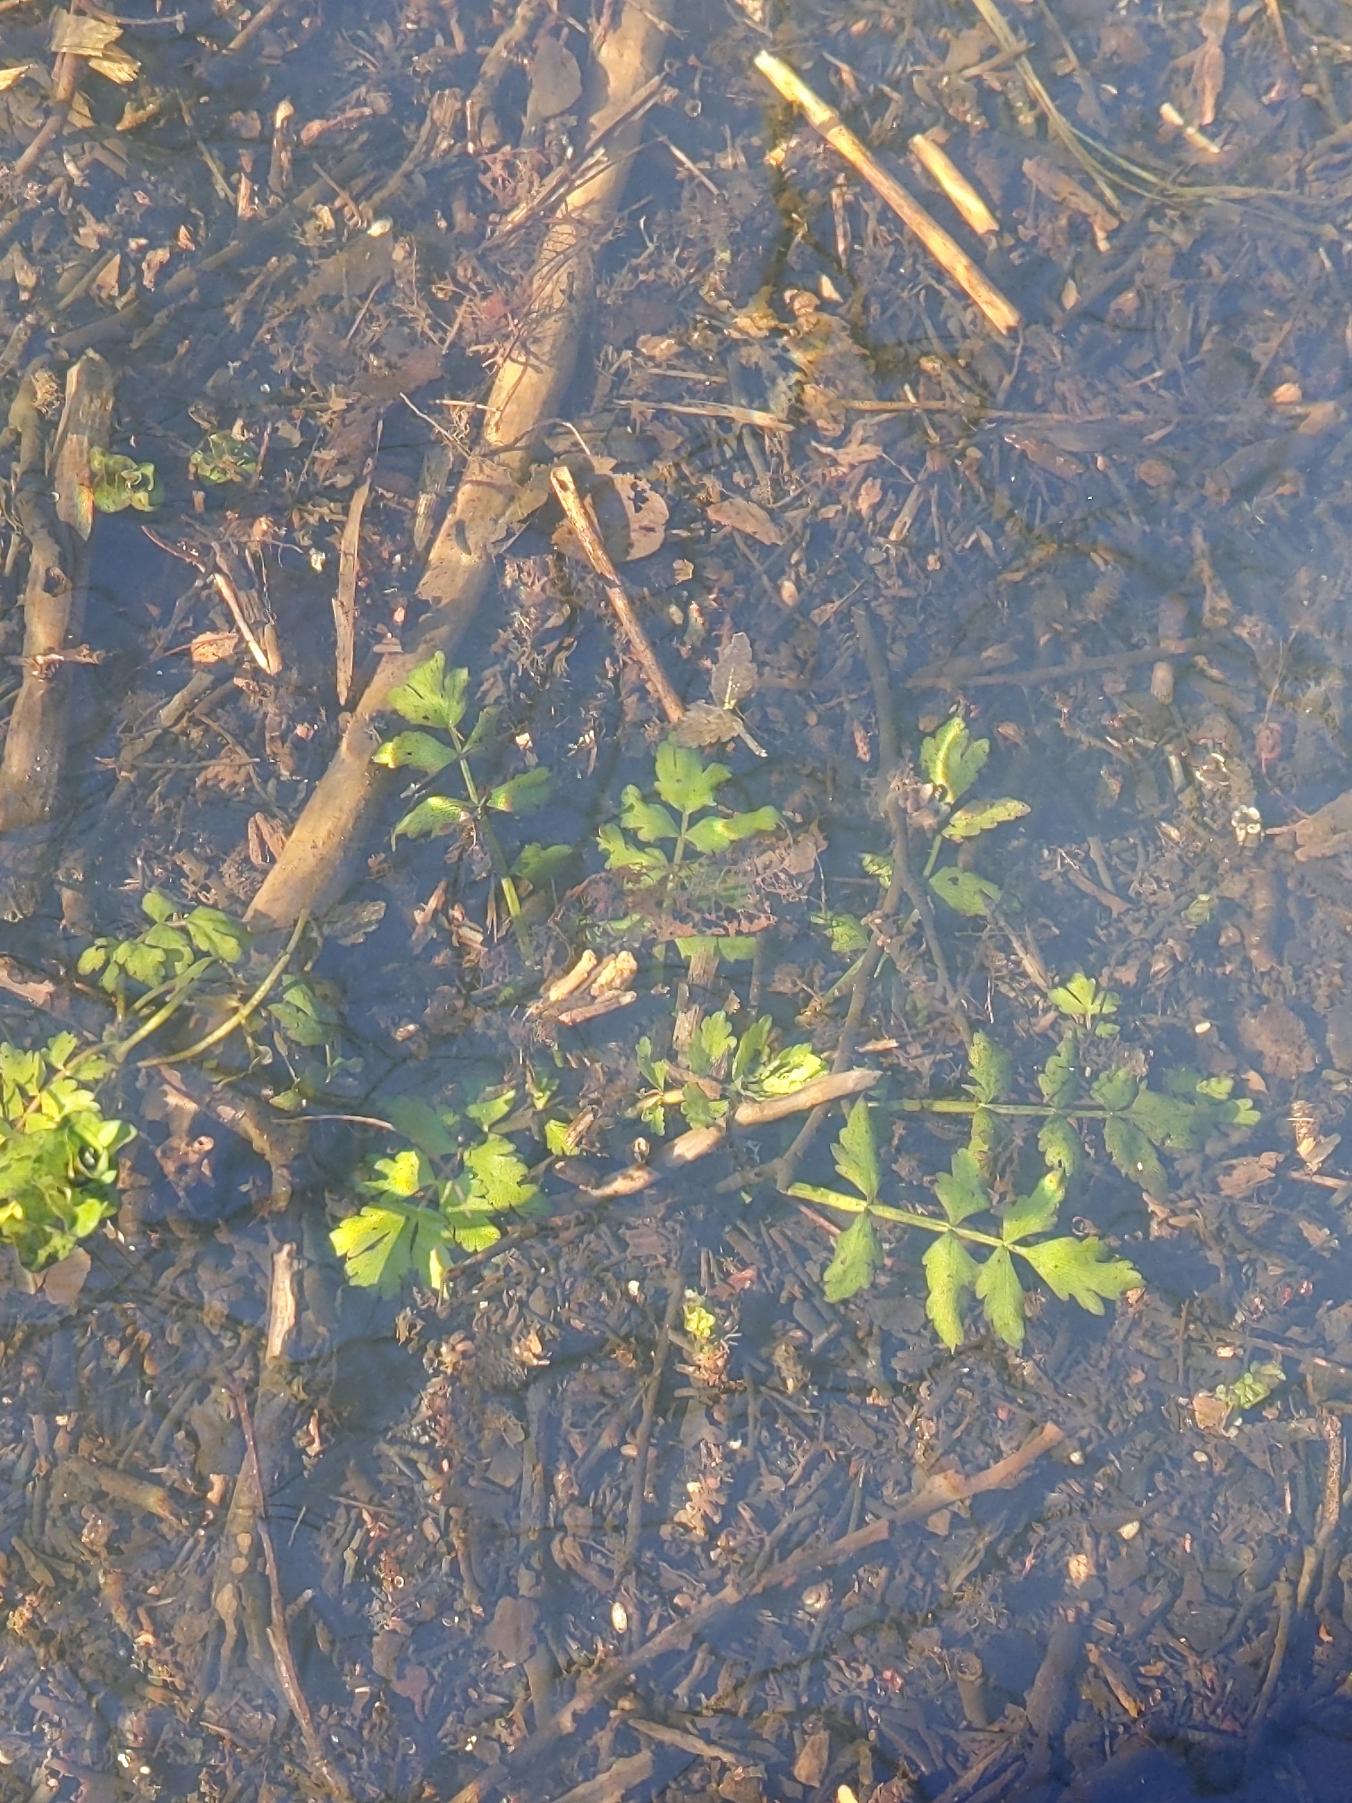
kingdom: Plantae
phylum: Tracheophyta
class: Magnoliopsida
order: Apiales
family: Apiaceae
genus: Berula
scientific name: Berula erecta
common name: Sideskærm
